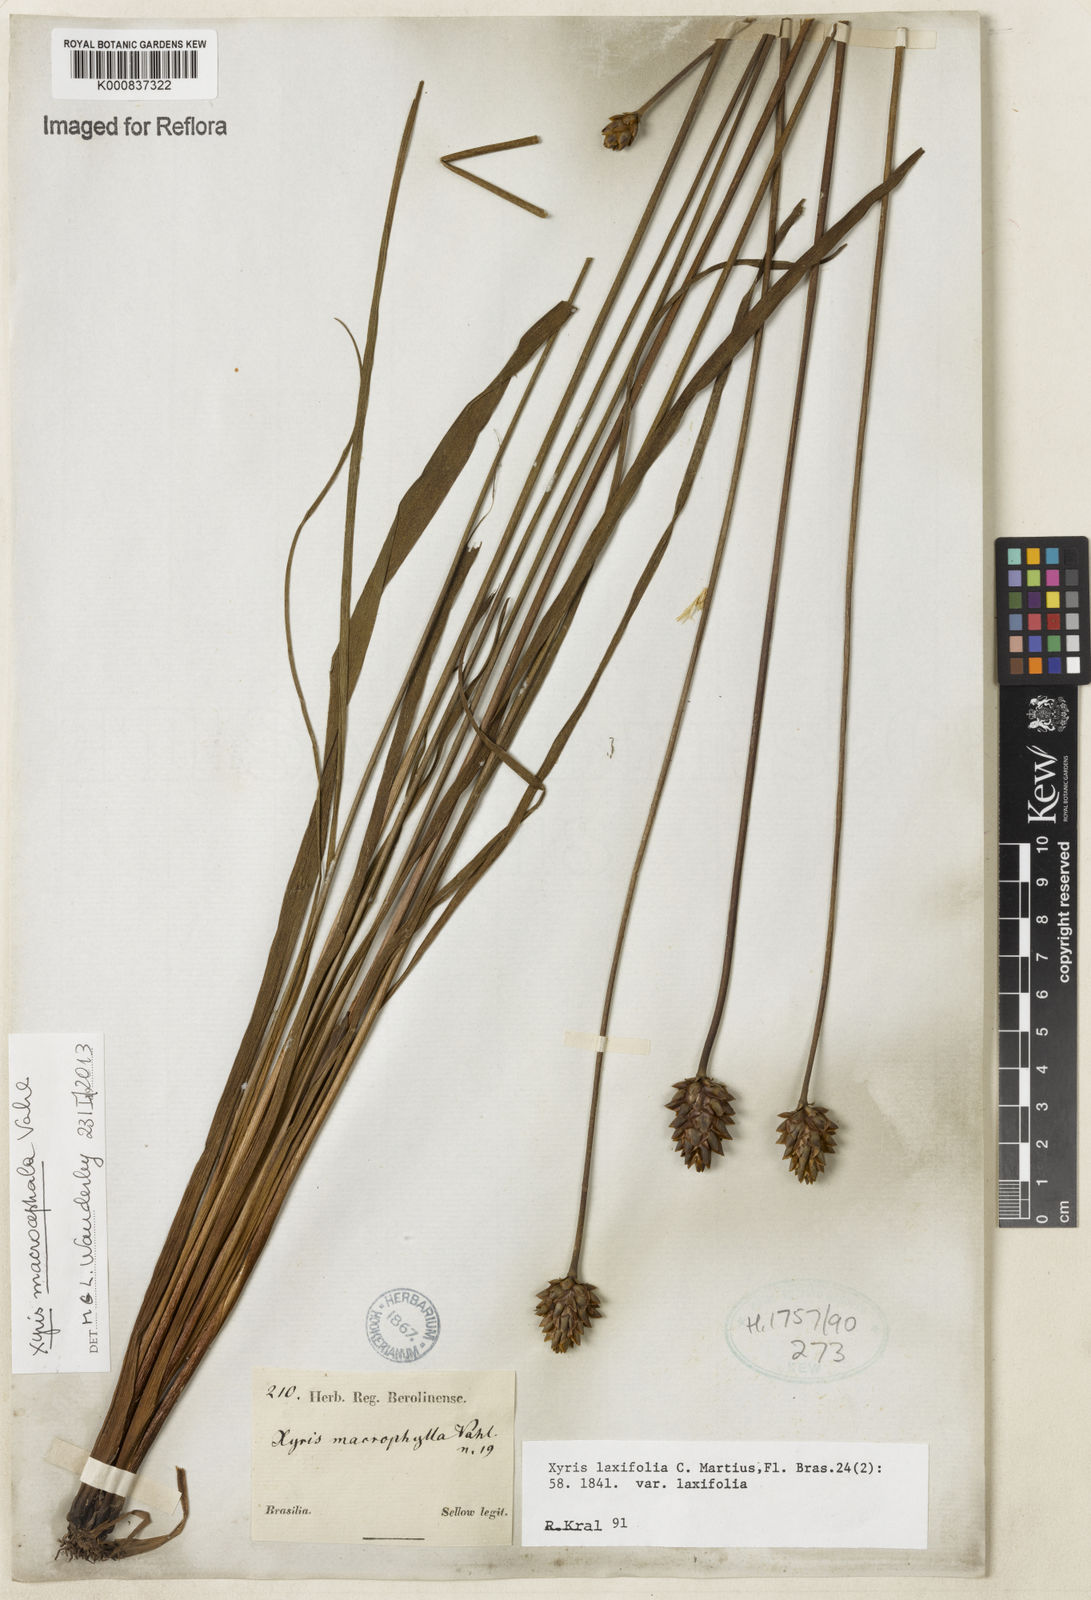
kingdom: Plantae
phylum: Tracheophyta
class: Liliopsida
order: Poales
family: Xyridaceae
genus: Xyris
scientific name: Xyris jupicai
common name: Richard's yelloweyed grass
